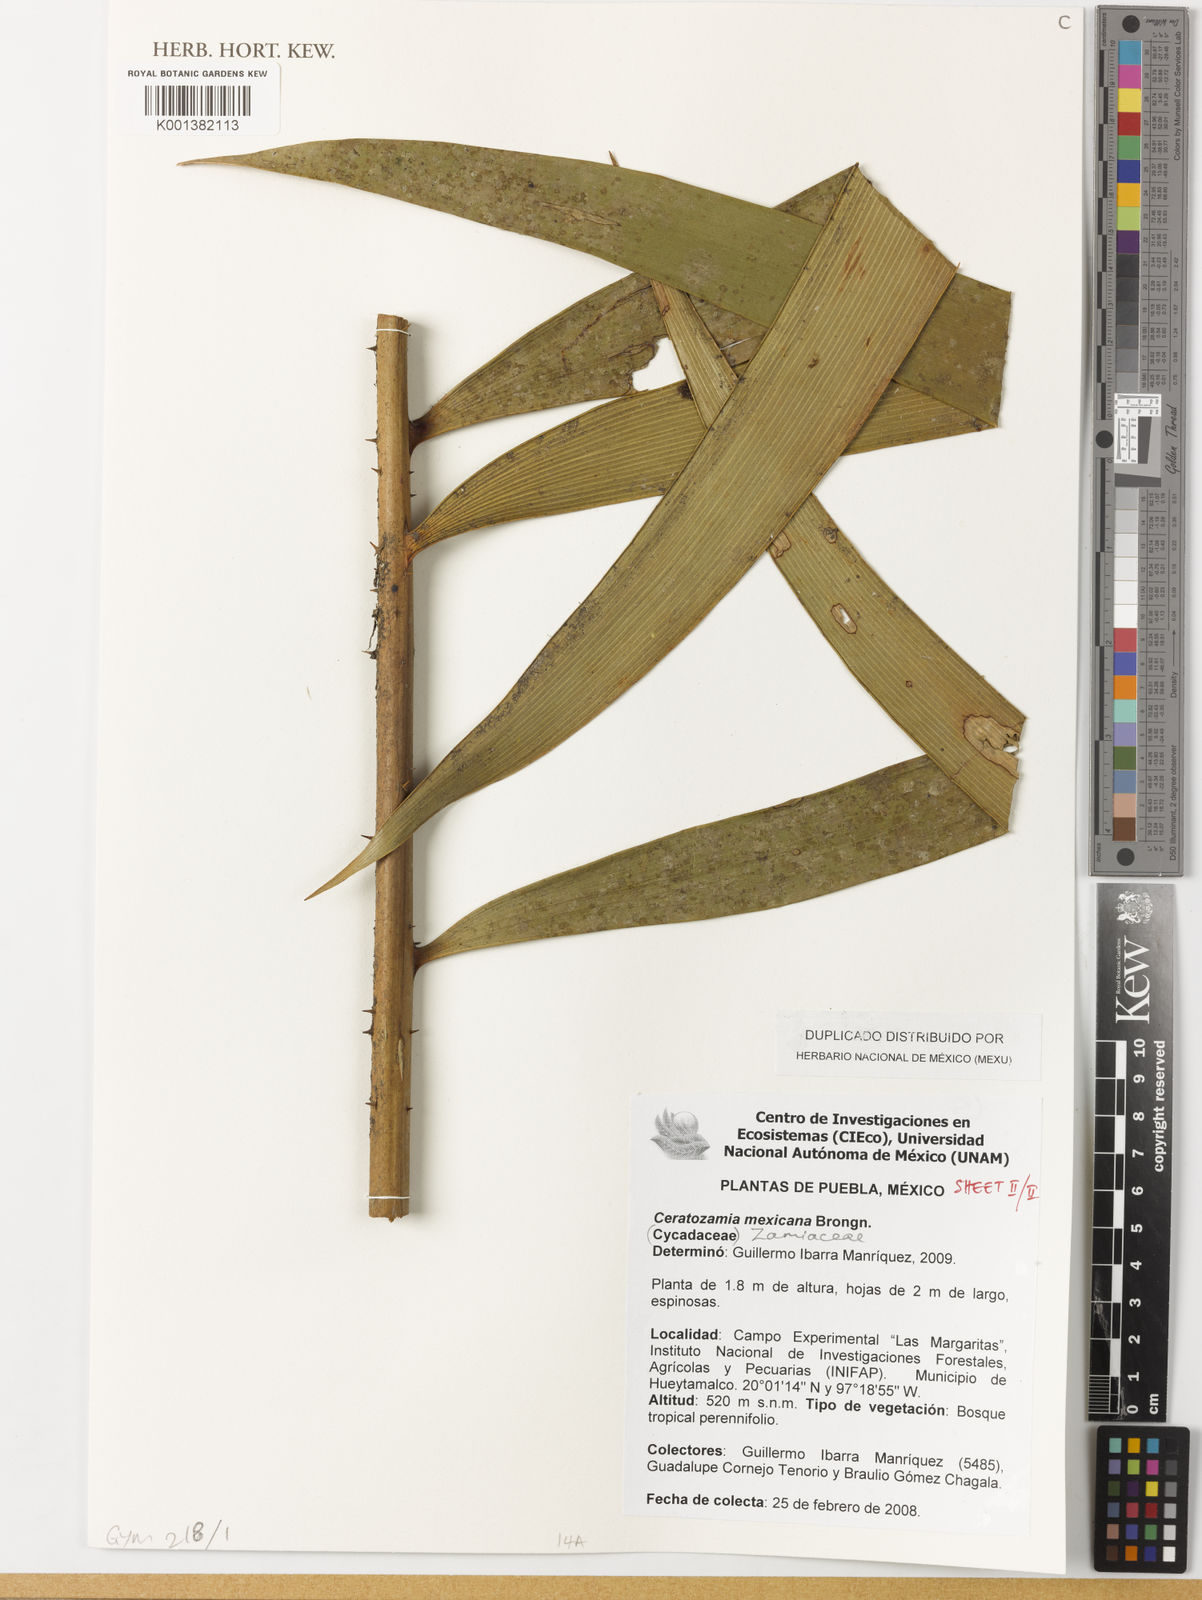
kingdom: Plantae
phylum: Tracheophyta
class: Cycadopsida
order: Cycadales
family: Zamiaceae
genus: Ceratozamia
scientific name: Ceratozamia mexicana
